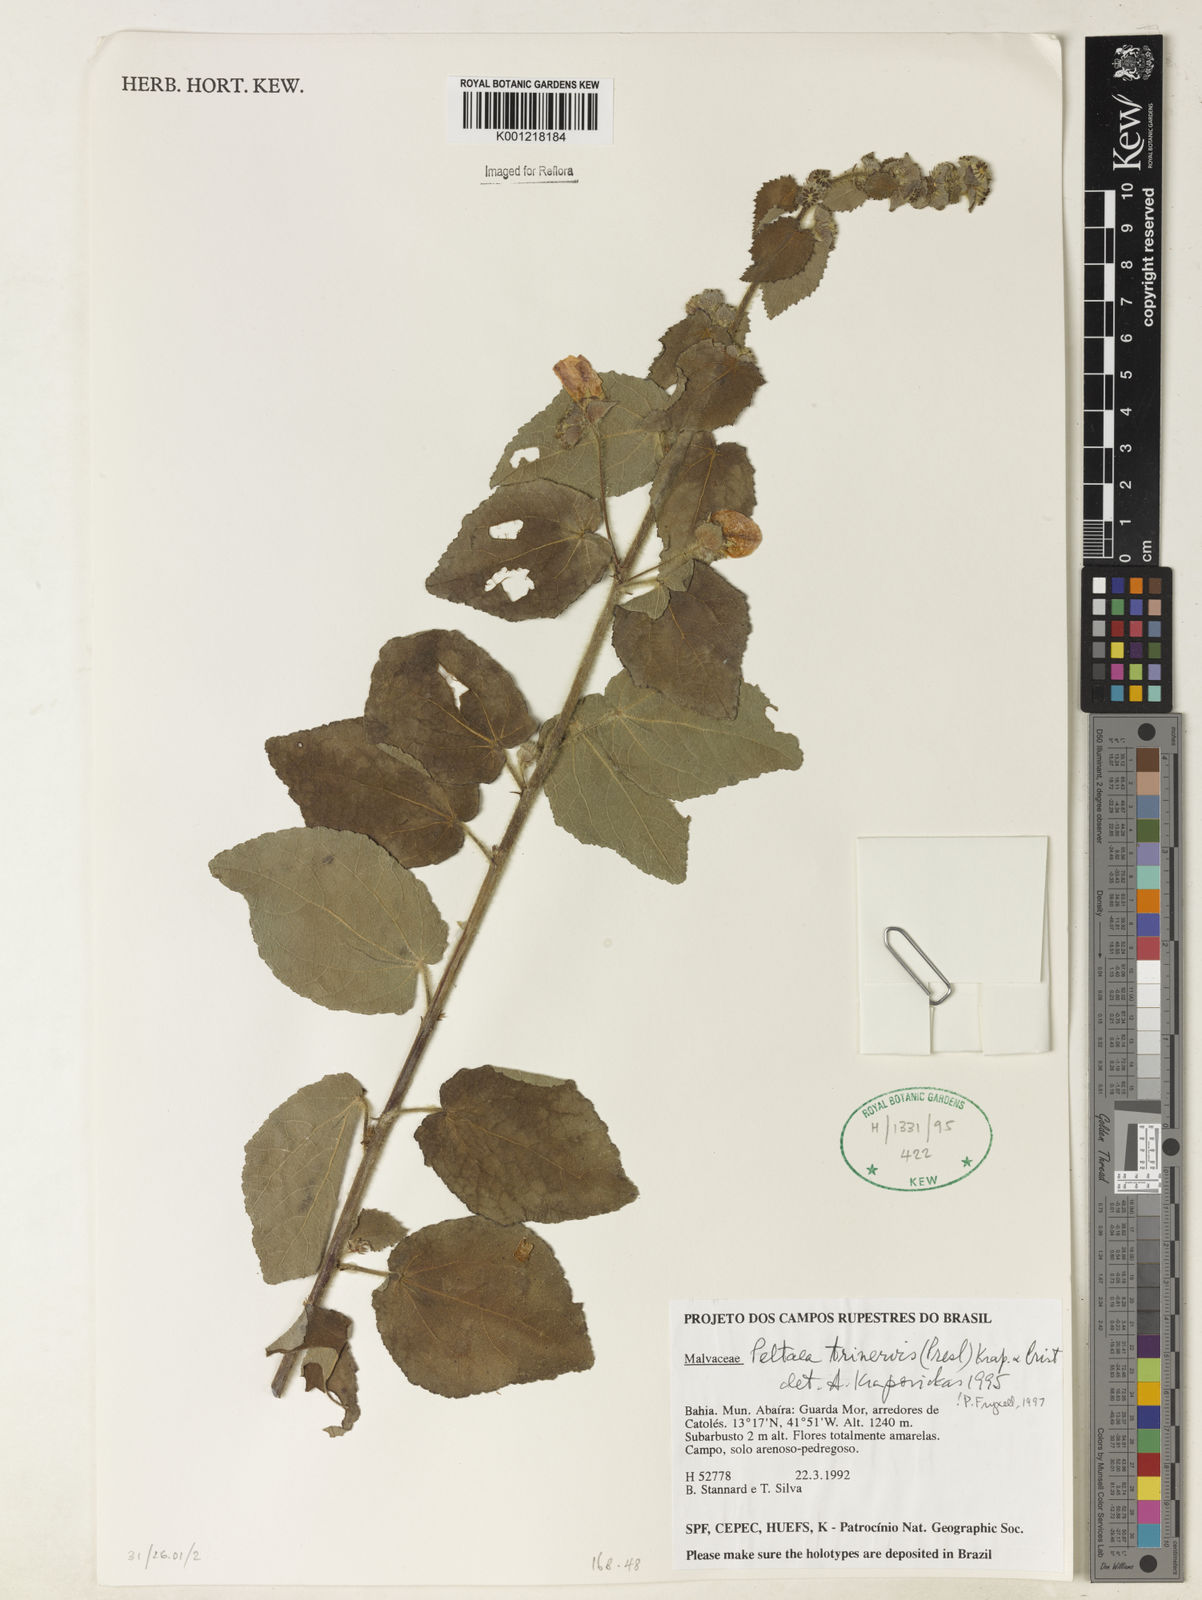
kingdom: Plantae
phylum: Tracheophyta
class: Magnoliopsida
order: Malvales
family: Malvaceae
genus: Peltaea
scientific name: Peltaea
